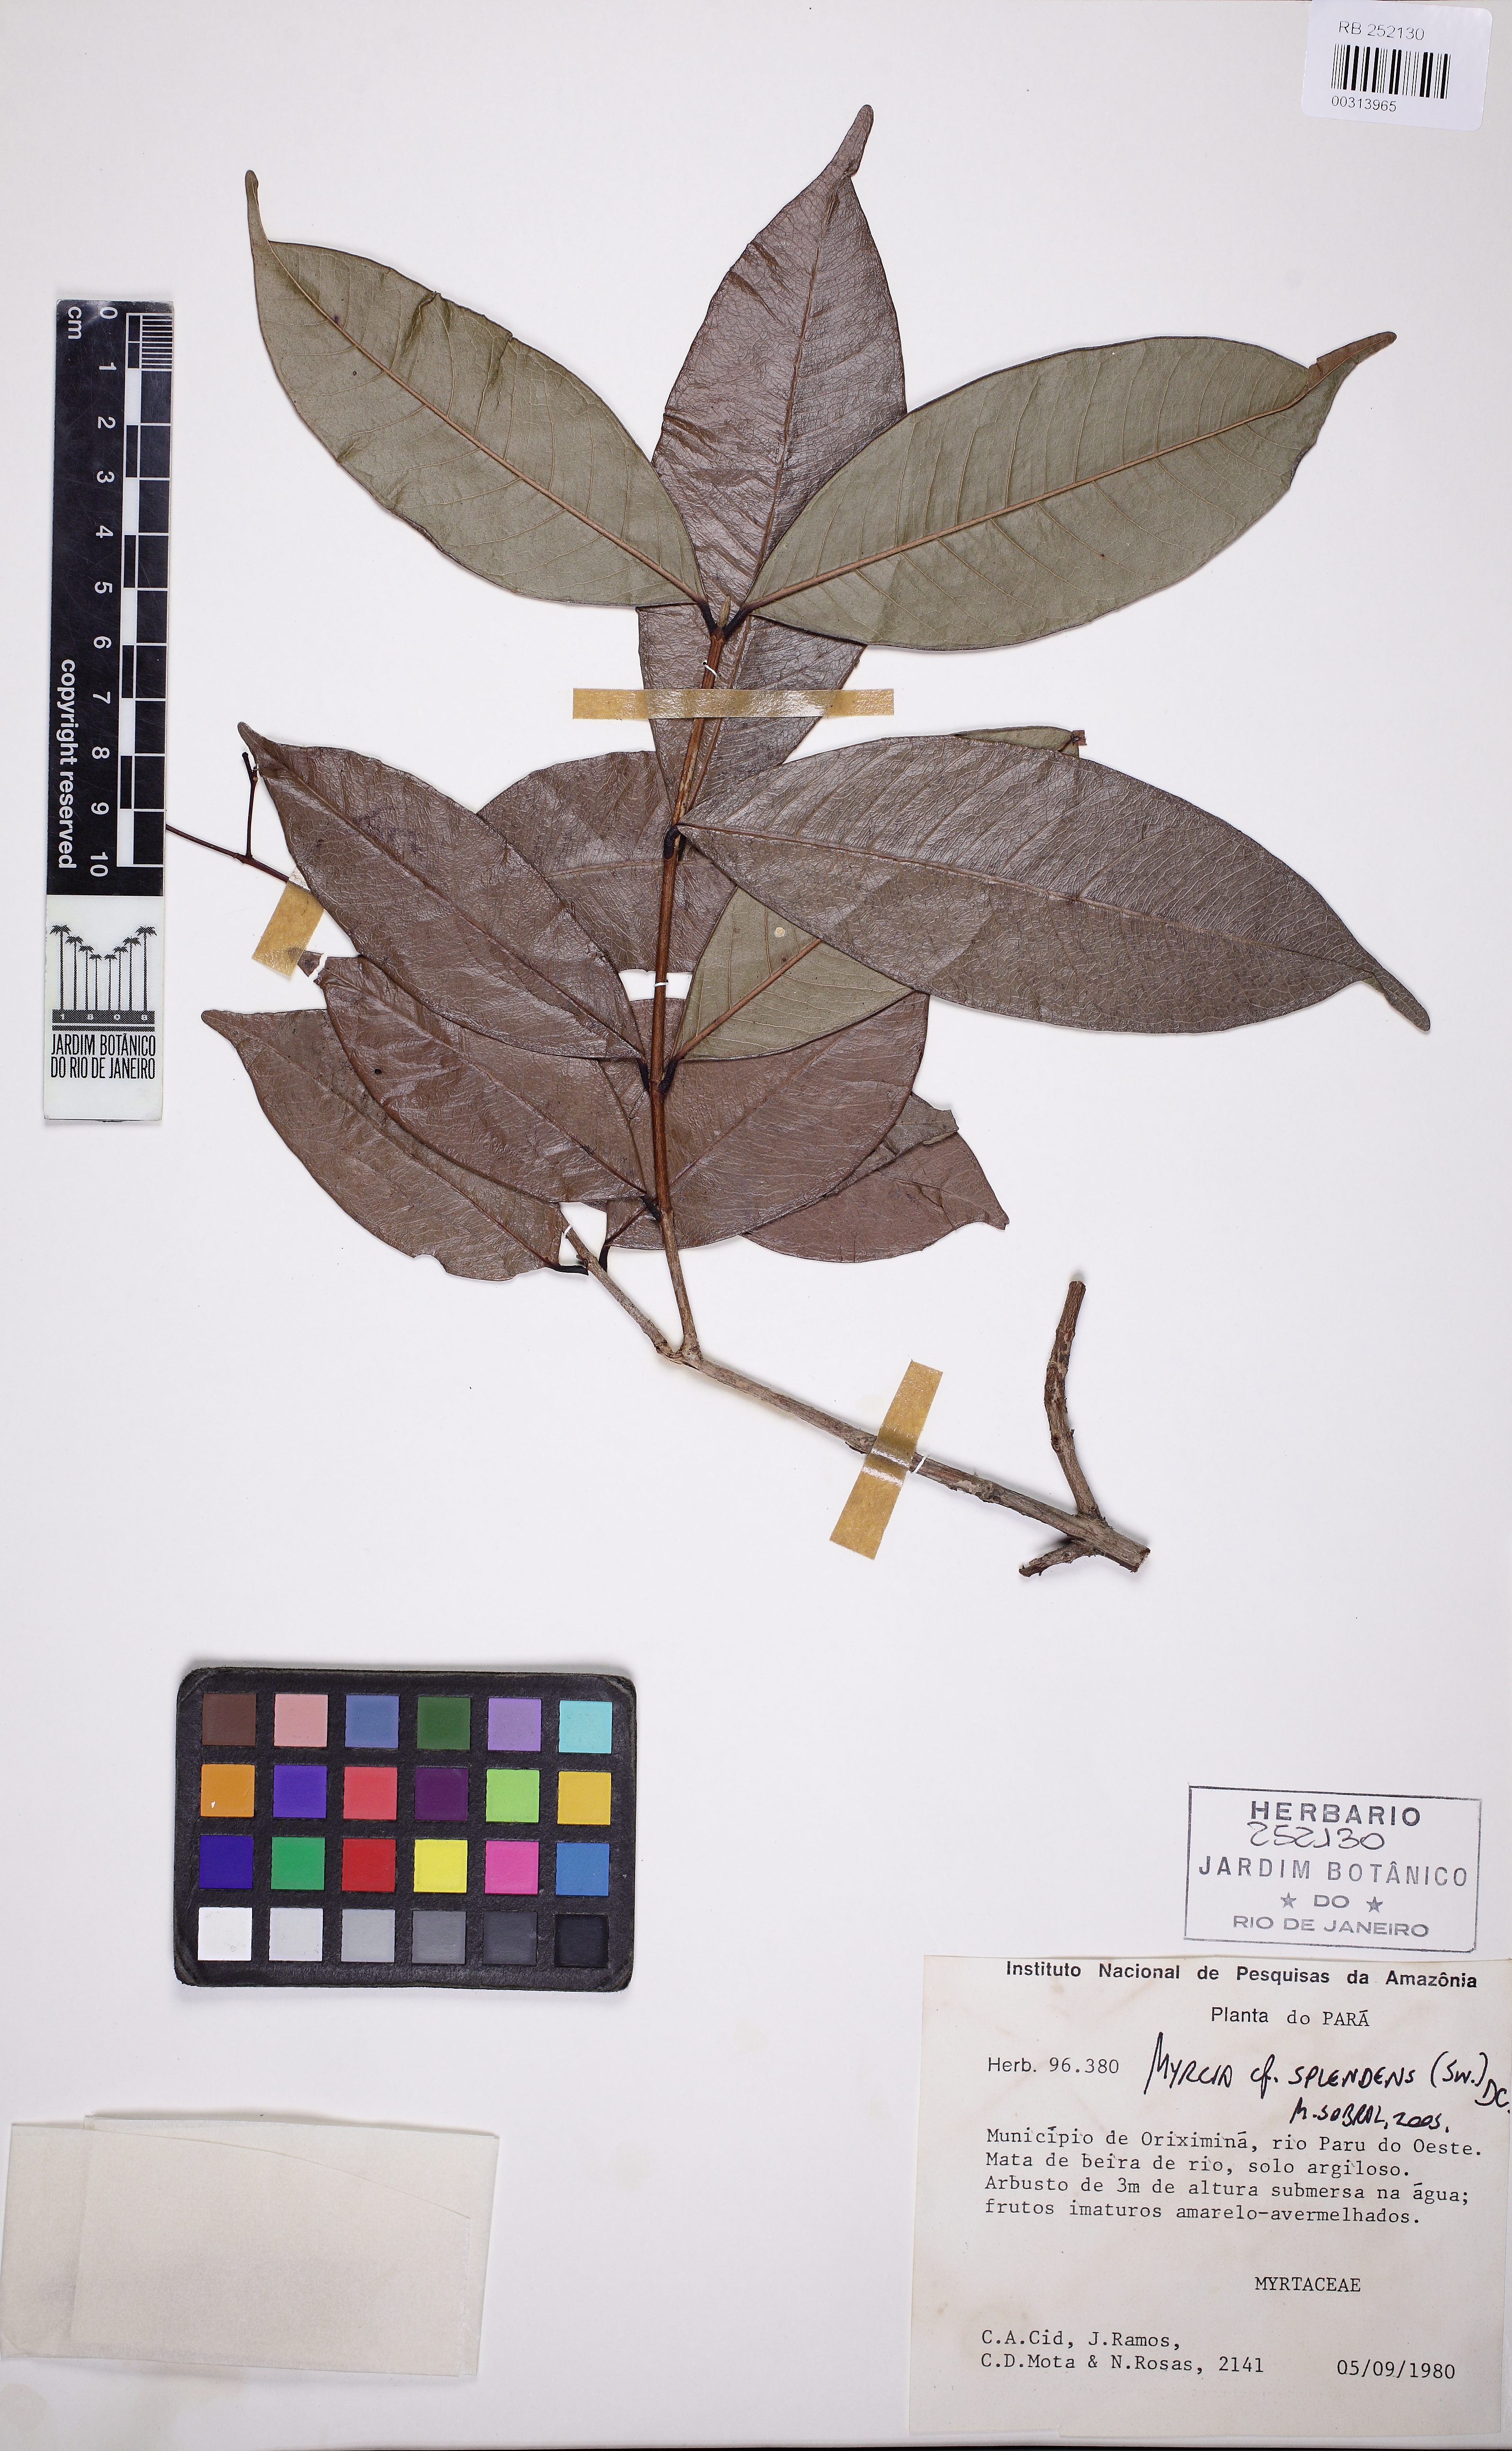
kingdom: Plantae
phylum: Tracheophyta
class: Magnoliopsida
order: Myrtales
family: Myrtaceae
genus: Myrcia
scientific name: Myrcia splendens
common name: Surinam cherry
